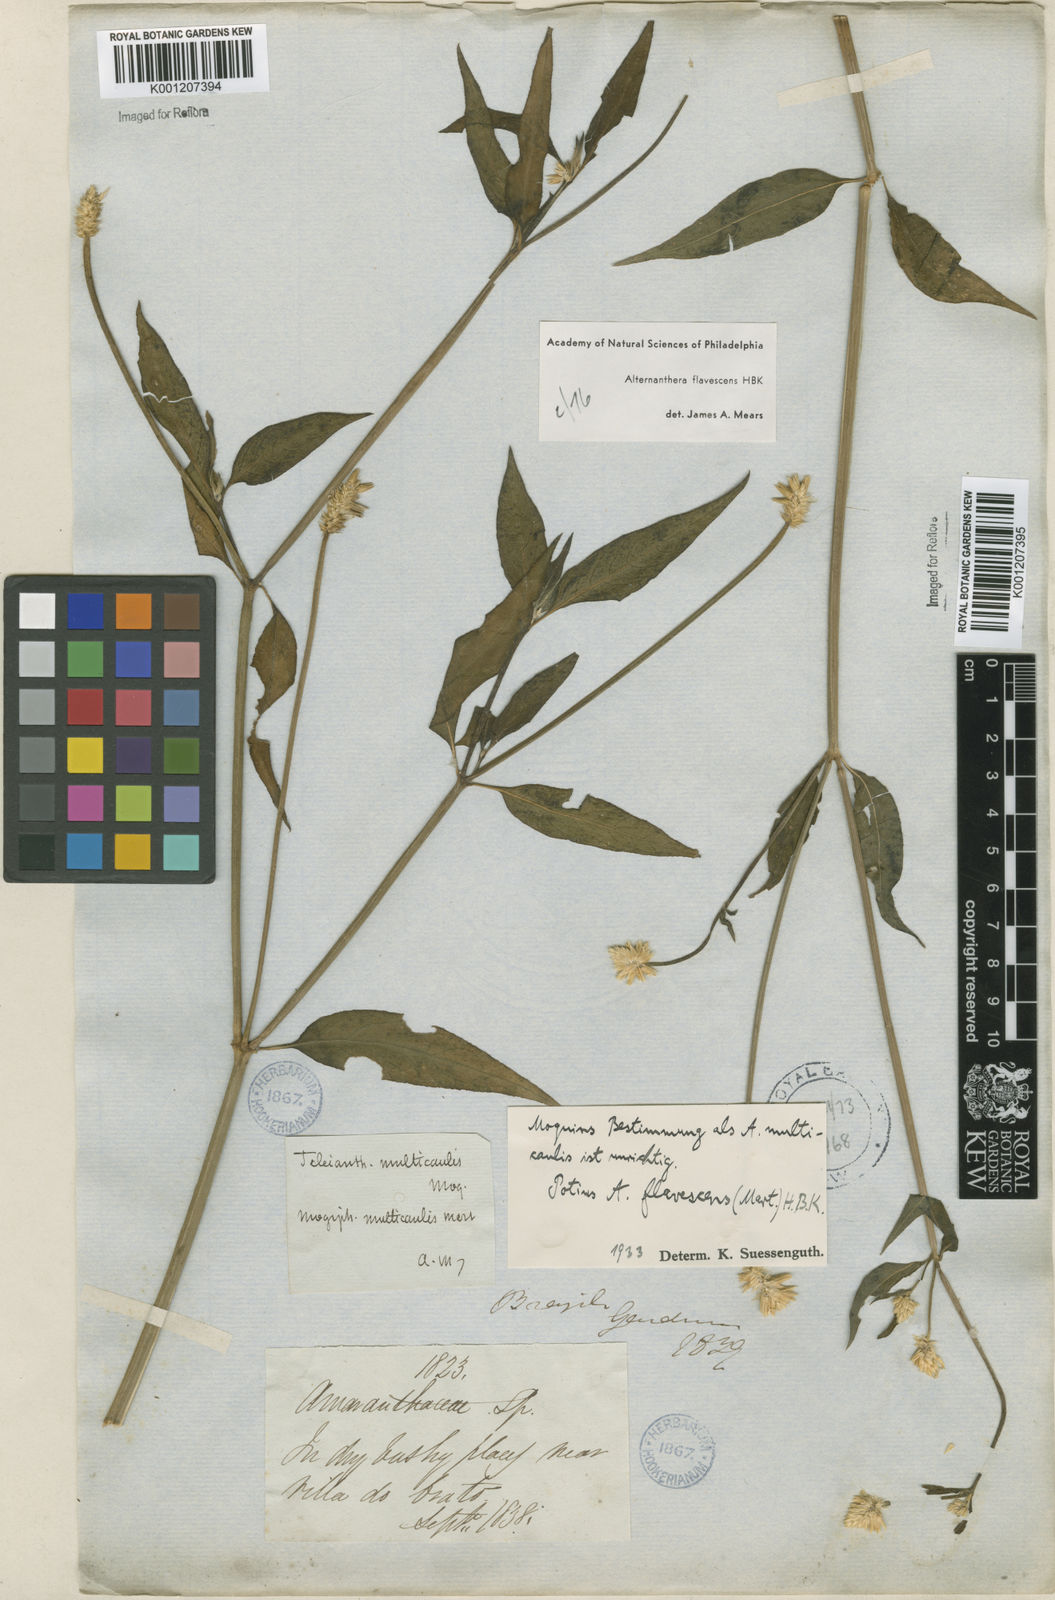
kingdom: Plantae
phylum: Tracheophyta
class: Magnoliopsida
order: Caryophyllales
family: Amaranthaceae
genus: Alternanthera
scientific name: Alternanthera flavescens
